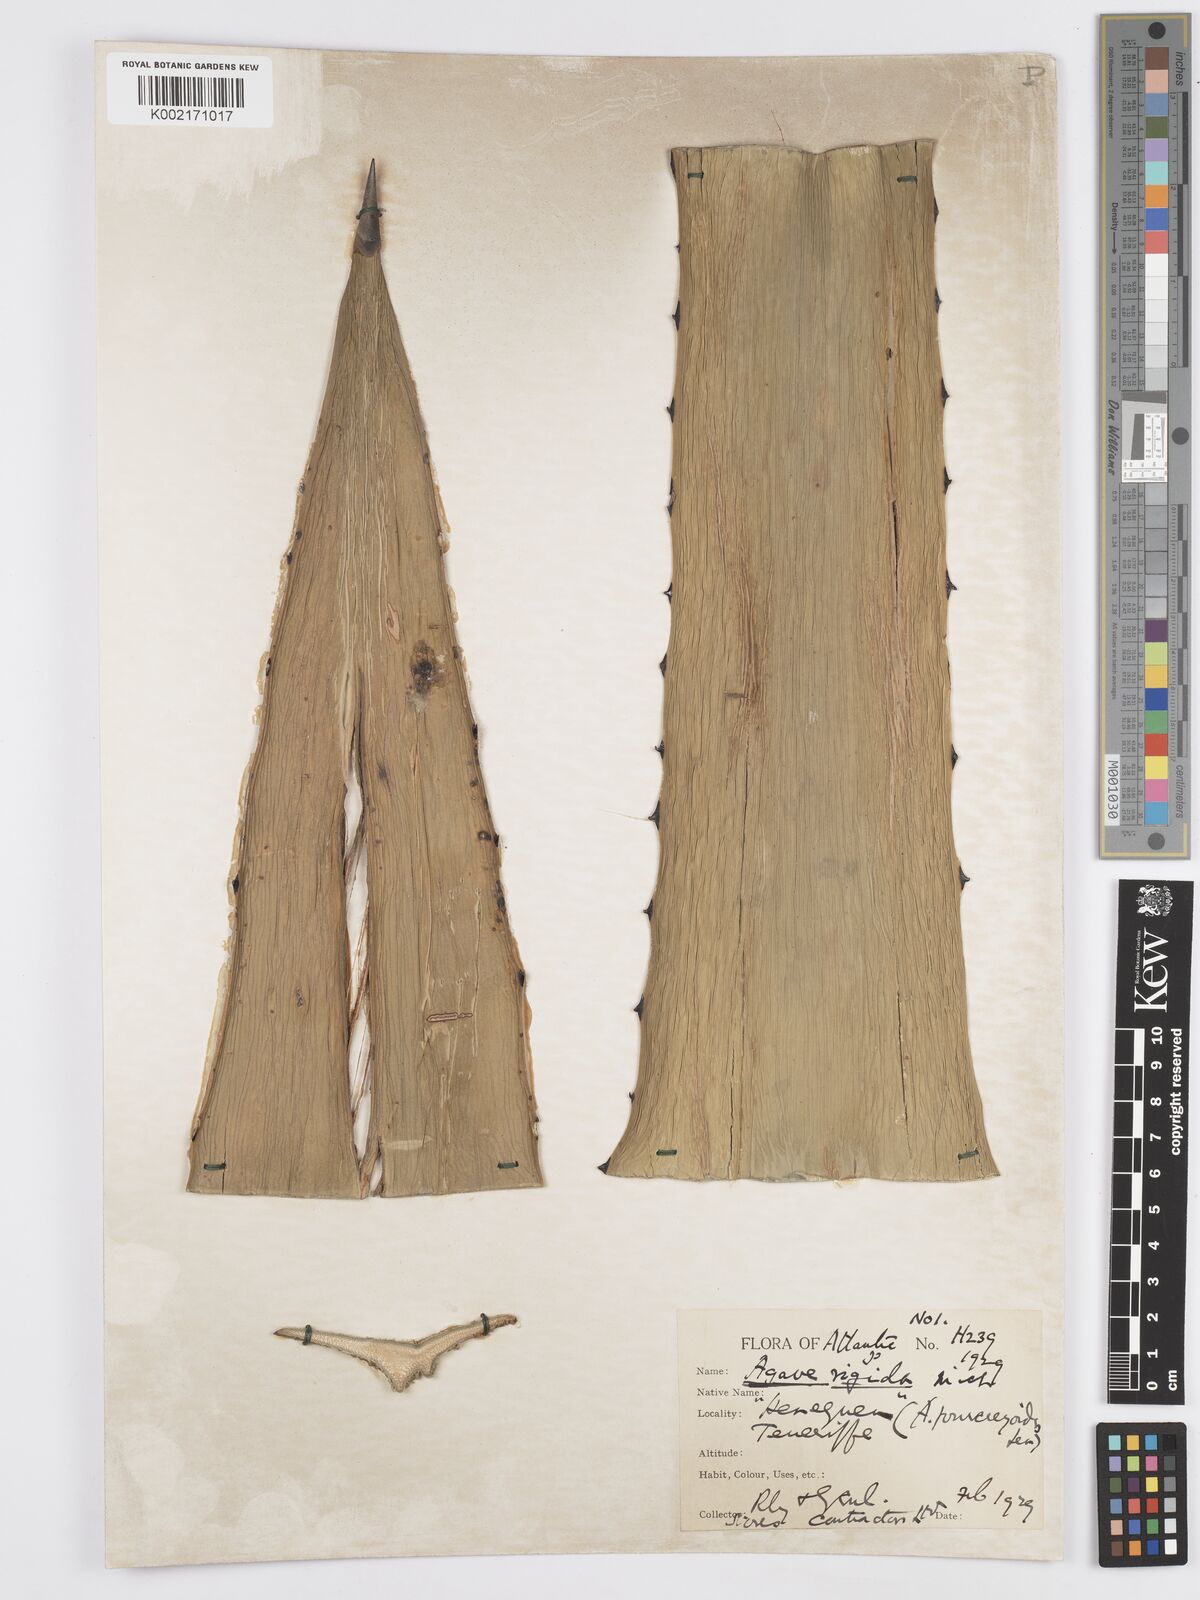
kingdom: Plantae
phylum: Tracheophyta
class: Liliopsida
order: Asparagales
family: Asparagaceae
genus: Agave
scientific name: Agave angustifolia
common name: Mescal agave
